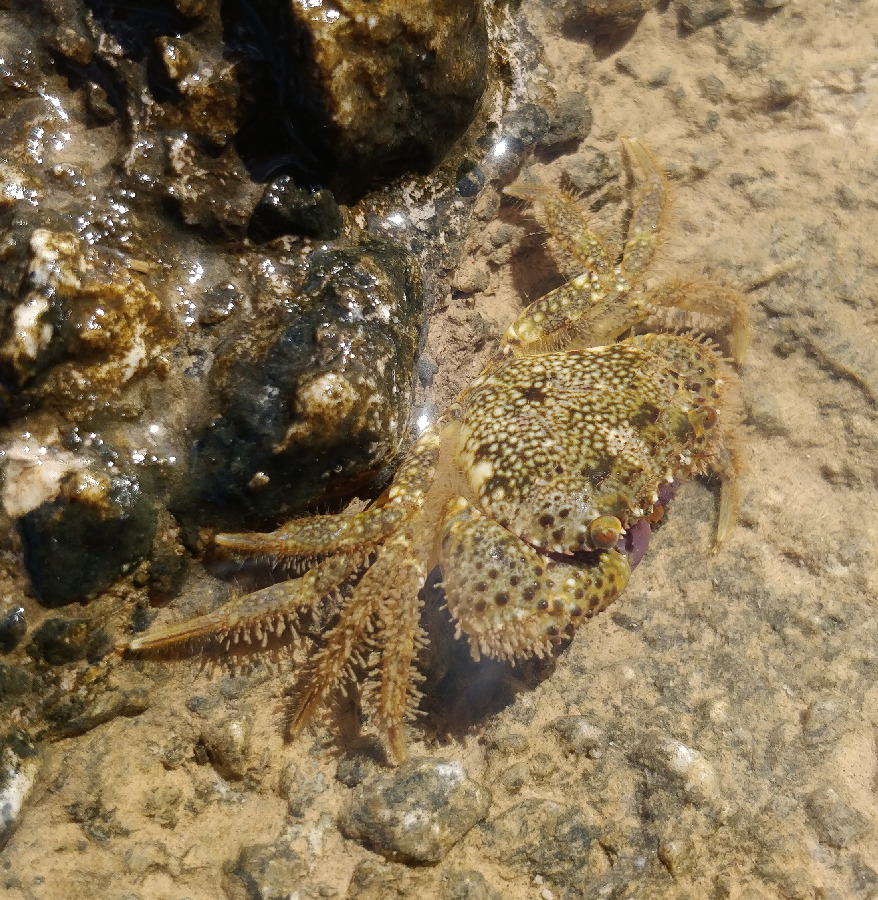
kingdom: Animalia
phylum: Arthropoda
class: Malacostraca
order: Decapoda
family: Eriphiidae
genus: Eriphia
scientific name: Eriphia verrucosa
